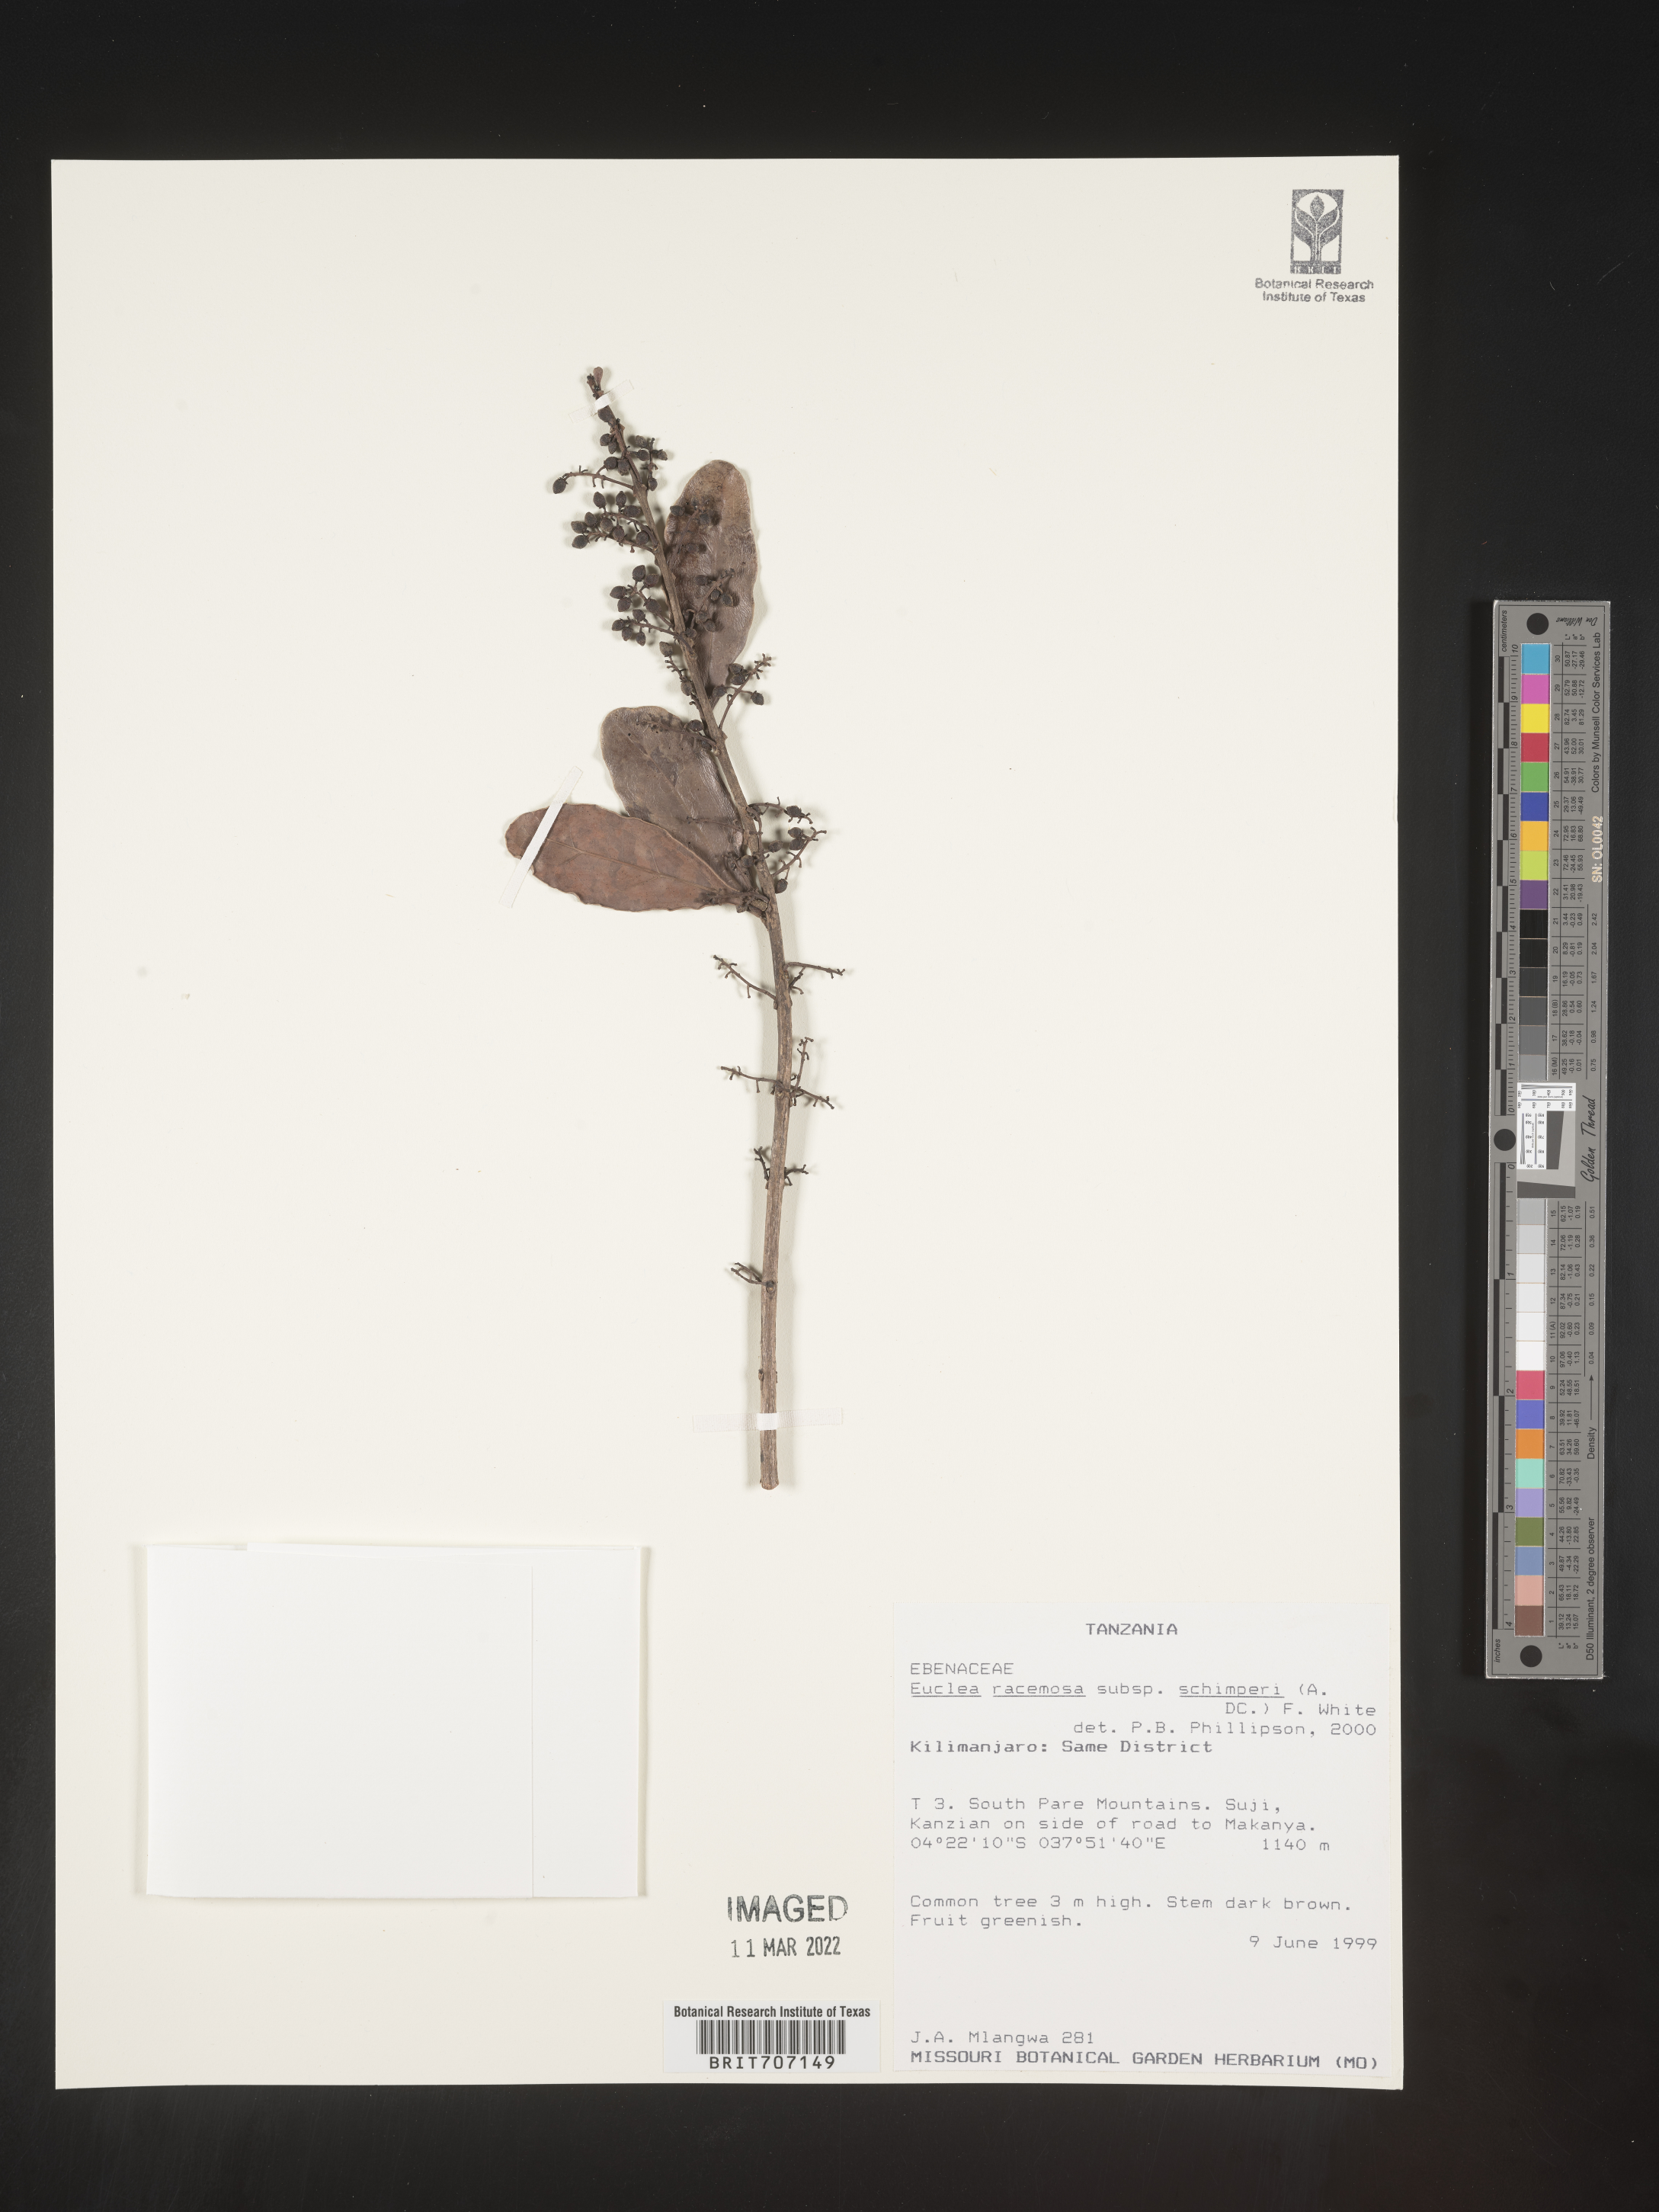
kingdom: Plantae
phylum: Tracheophyta
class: Magnoliopsida
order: Ericales
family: Ebenaceae
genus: Euclea
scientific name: Euclea
